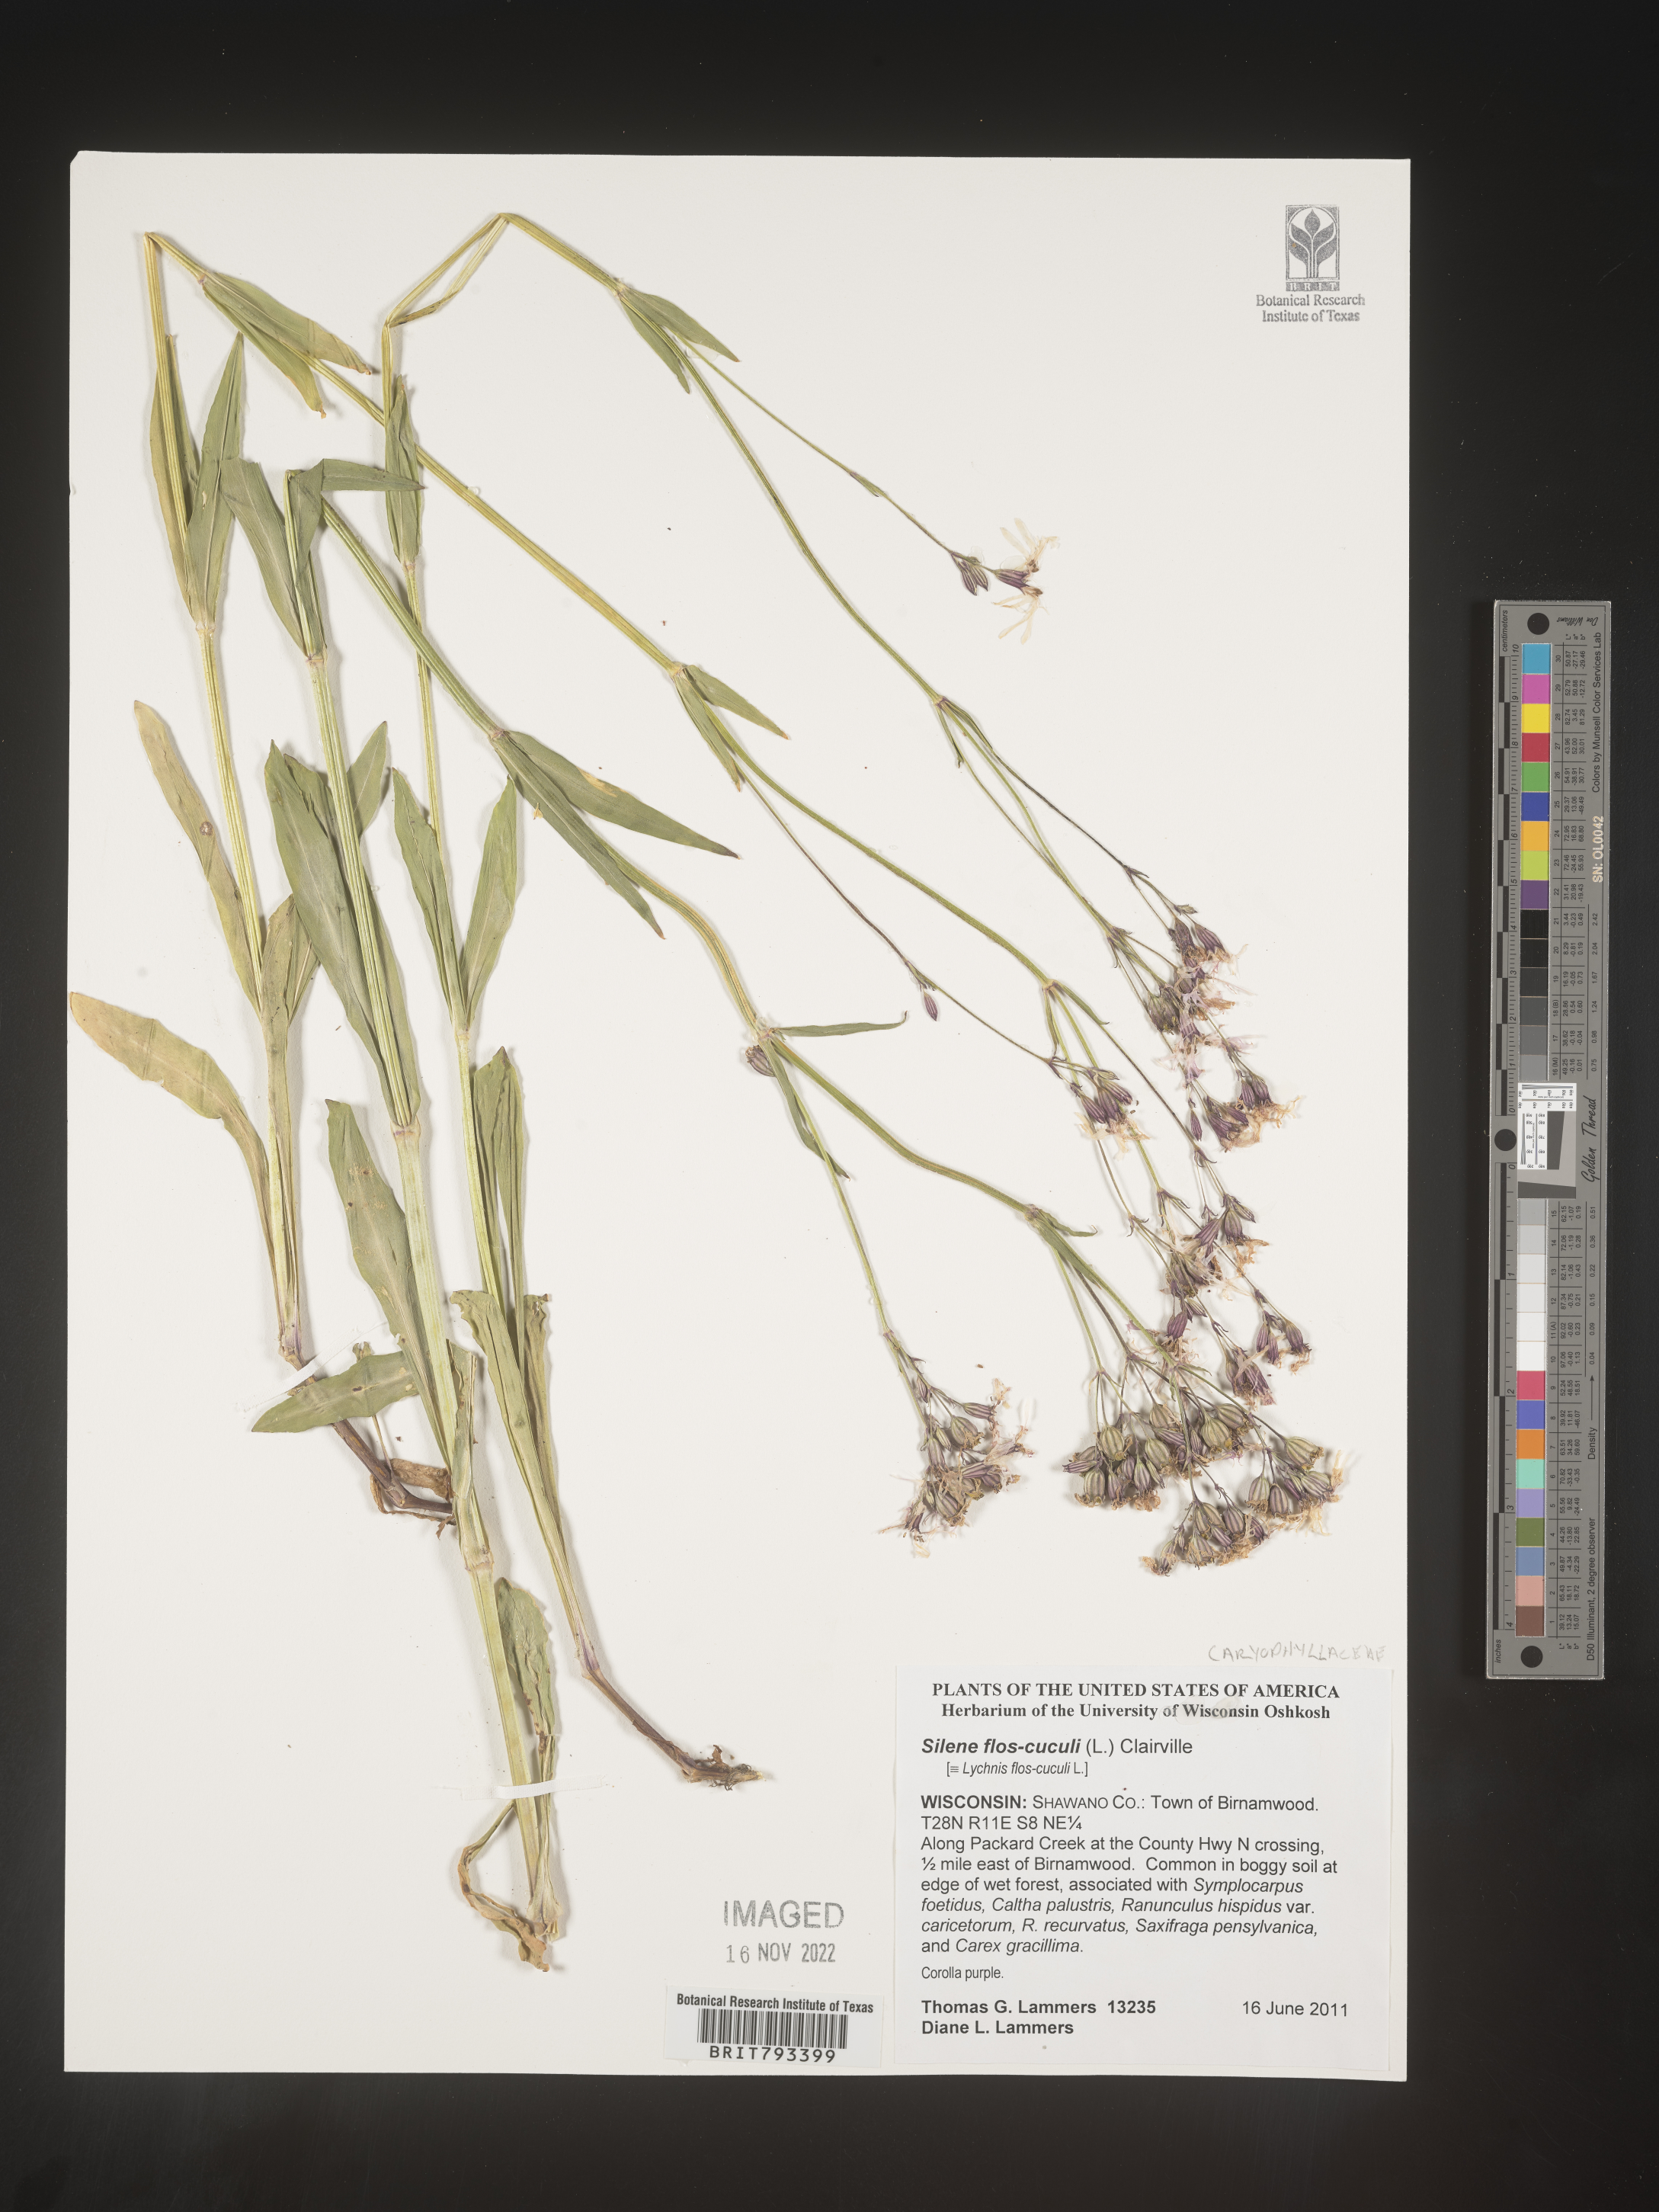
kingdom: Plantae
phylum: Tracheophyta
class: Magnoliopsida
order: Caryophyllales
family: Caryophyllaceae
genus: Silene
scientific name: Silene flos-cuculi
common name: Ragged-robin
